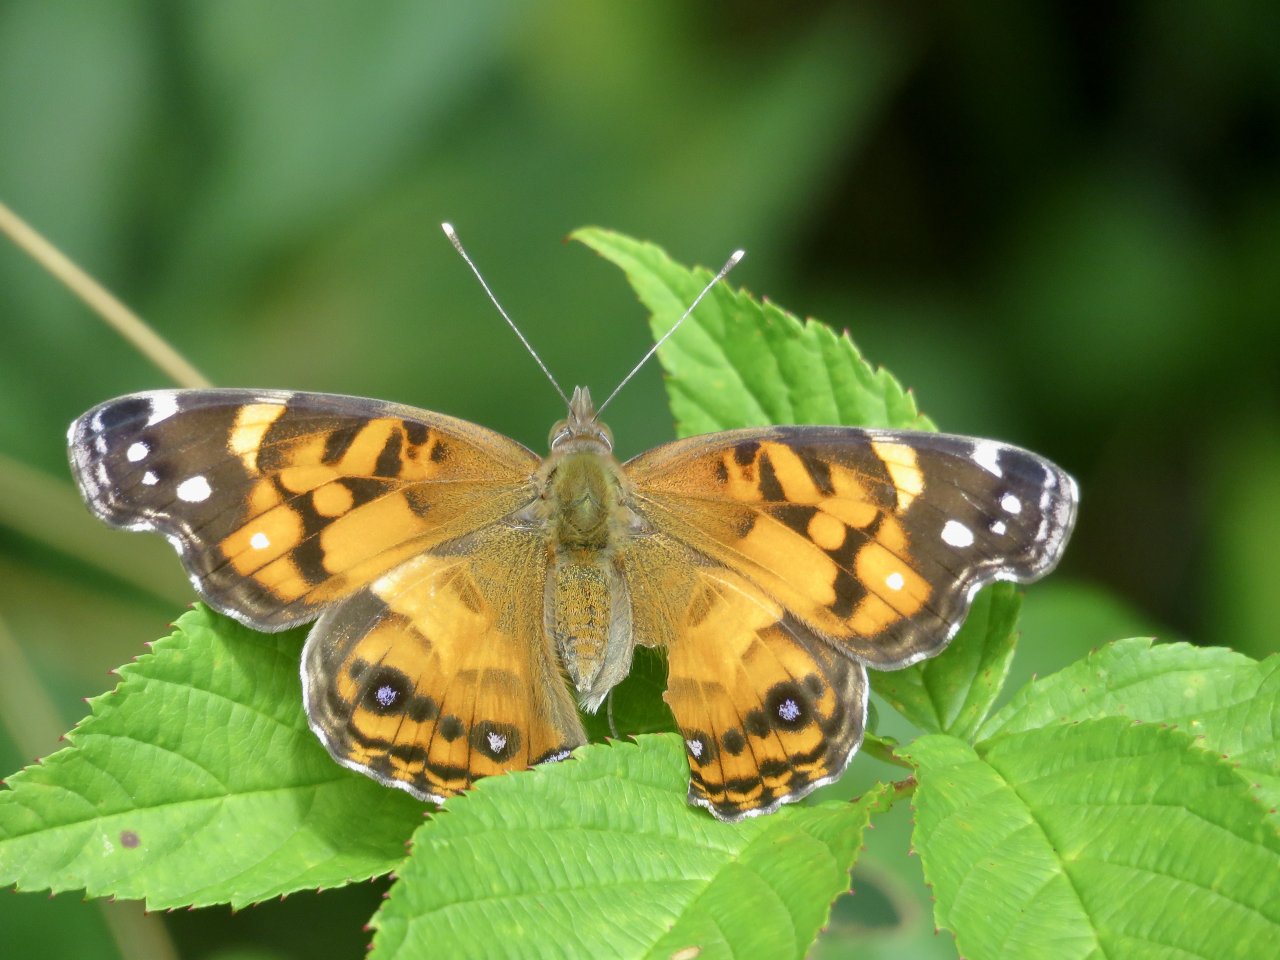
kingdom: Animalia
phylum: Arthropoda
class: Insecta
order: Lepidoptera
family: Nymphalidae
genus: Vanessa
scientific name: Vanessa virginiensis
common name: American Lady
